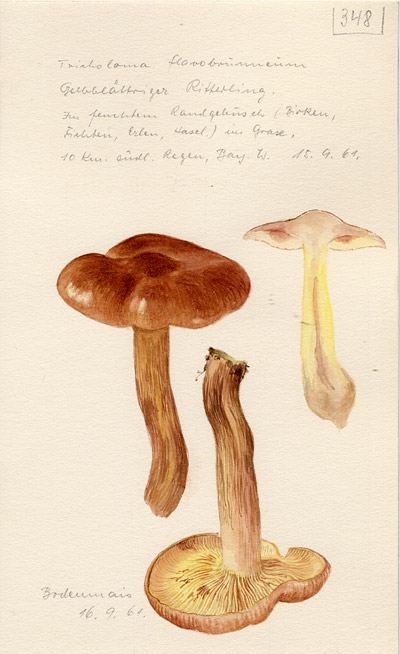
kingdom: Fungi
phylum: Basidiomycota
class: Agaricomycetes
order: Agaricales
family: Tricholomataceae
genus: Tricholoma
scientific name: Tricholoma fulvum
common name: Birch knight
